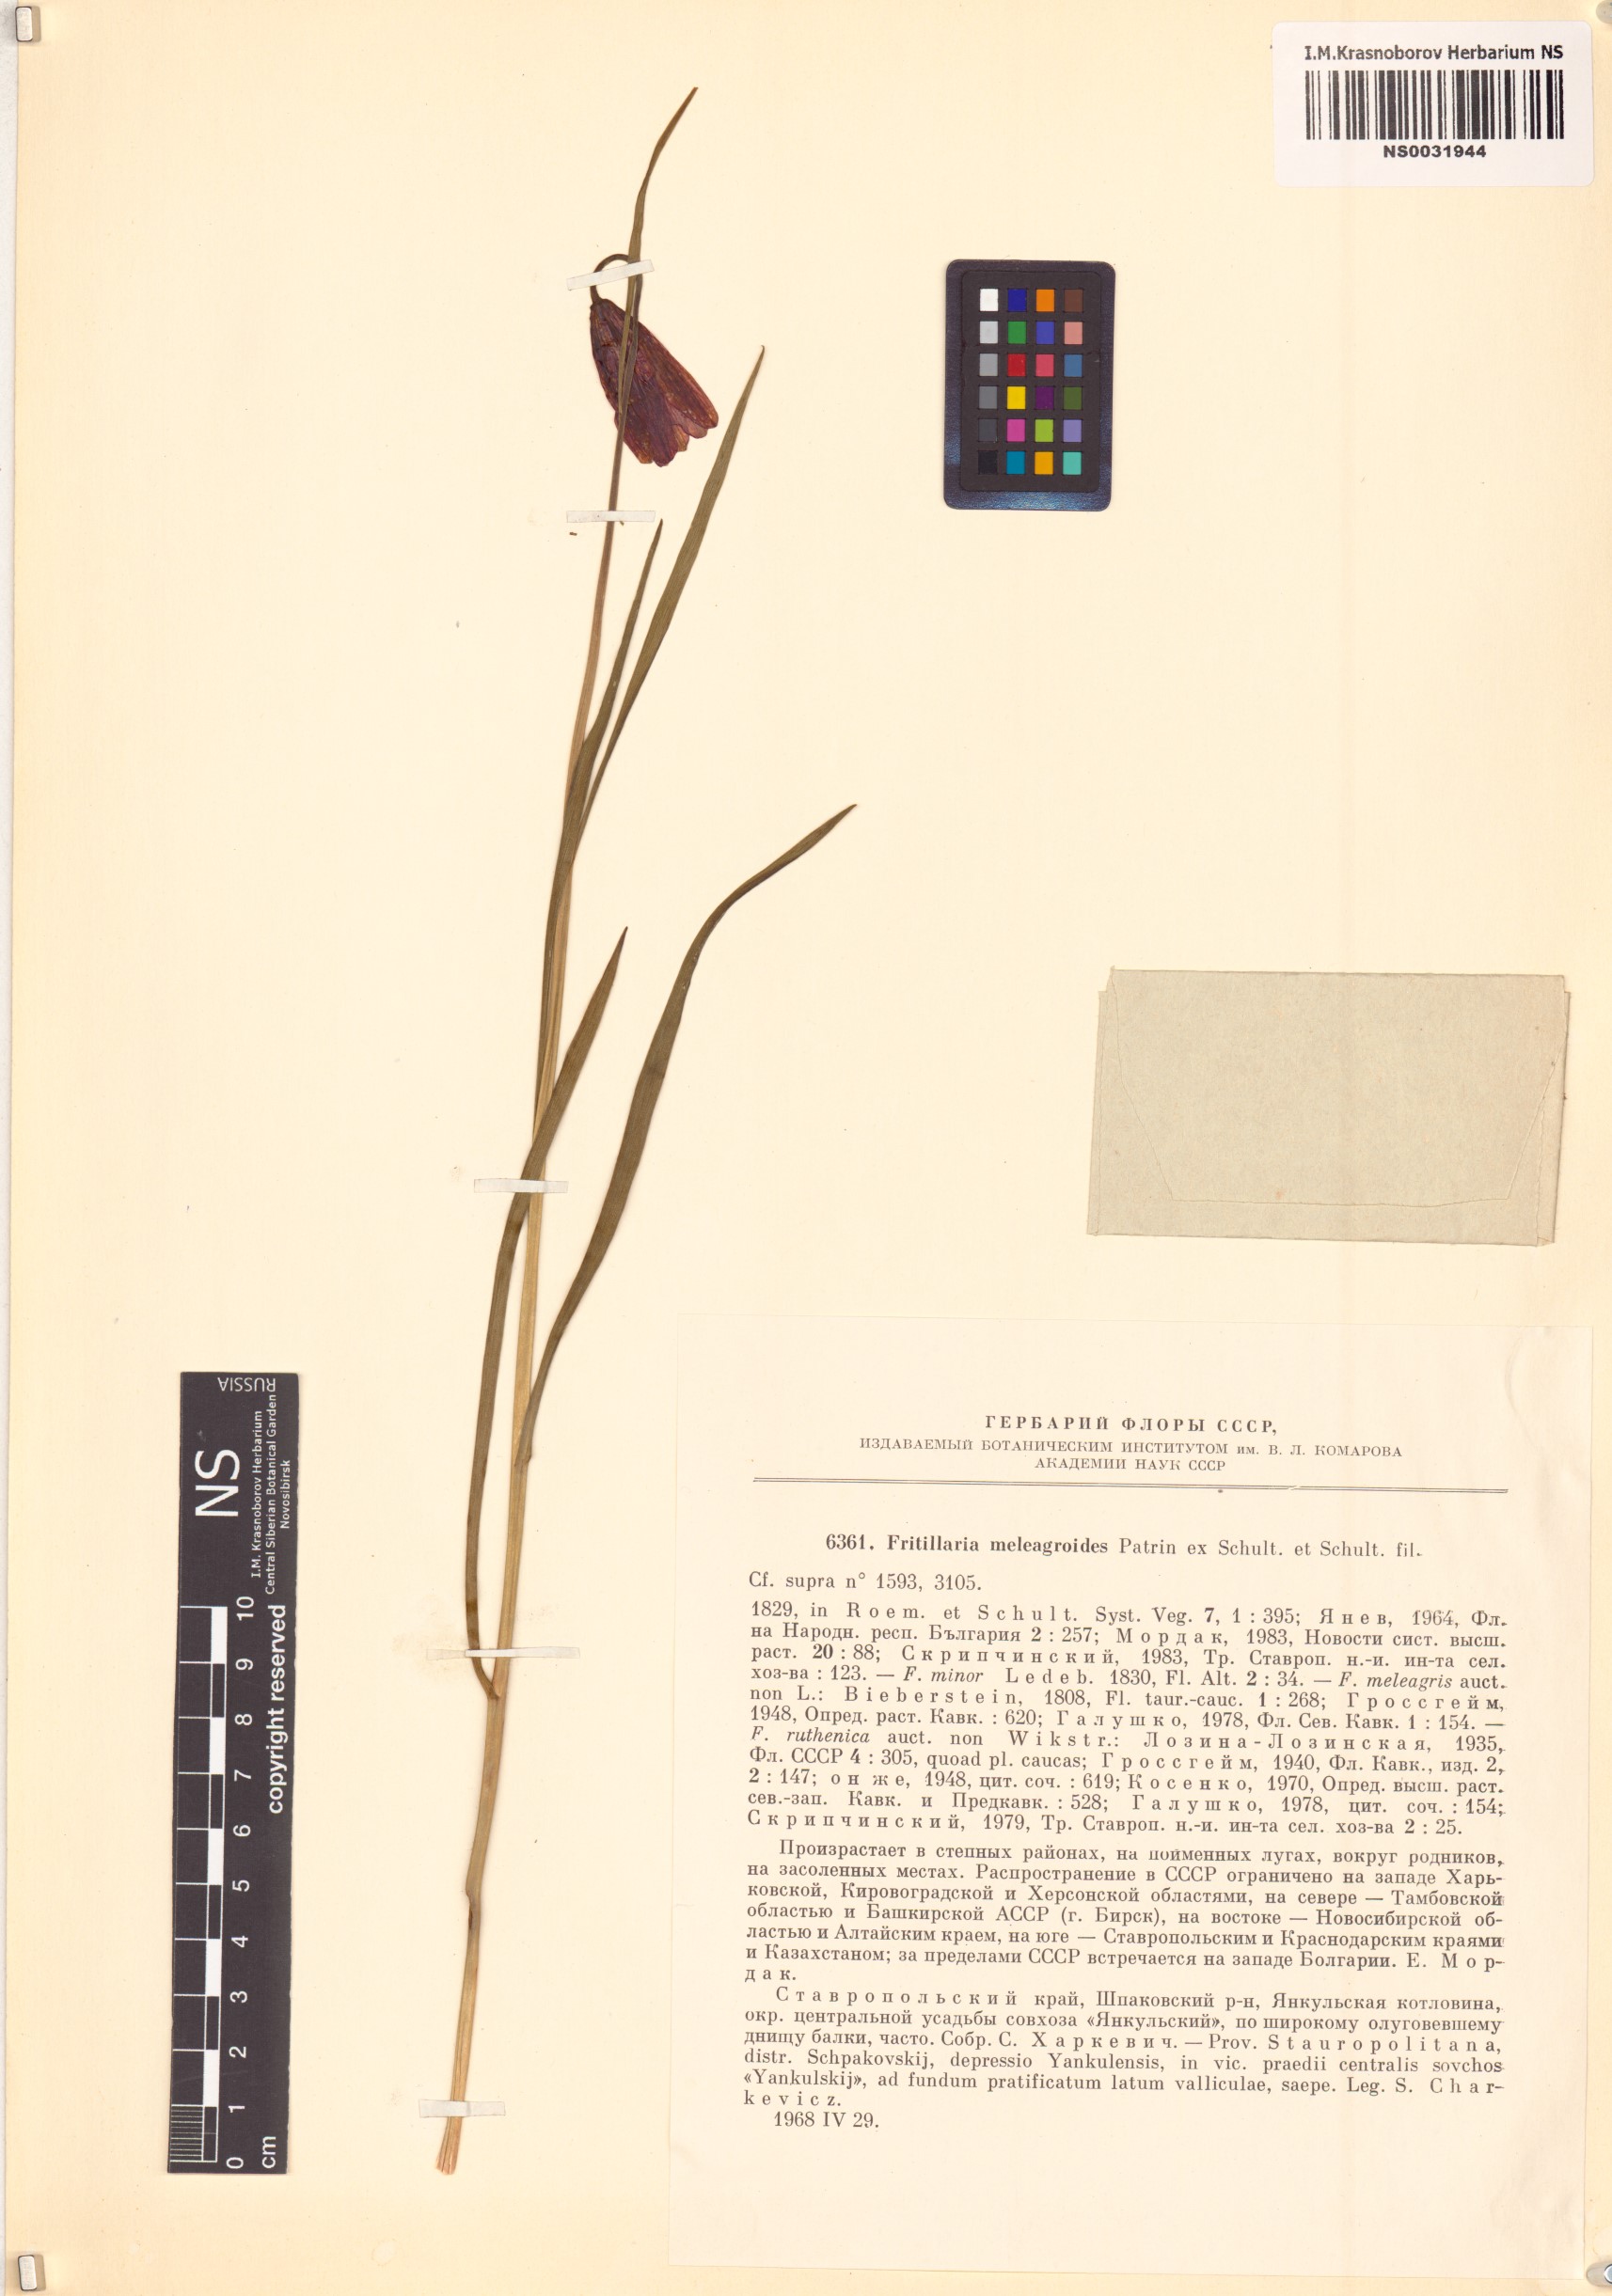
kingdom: Plantae
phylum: Tracheophyta
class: Liliopsida
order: Liliales
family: Liliaceae
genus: Fritillaria
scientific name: Fritillaria meleagroides
